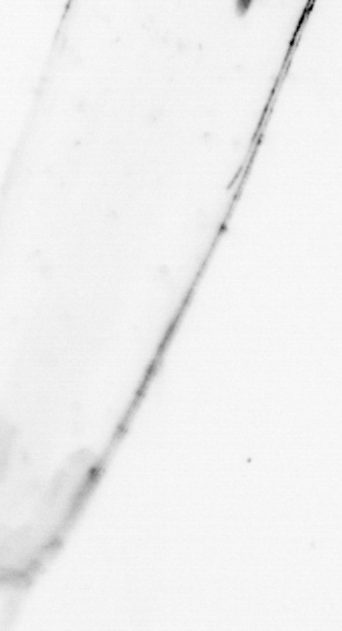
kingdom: Animalia
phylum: Chaetognatha
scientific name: Chaetognatha
